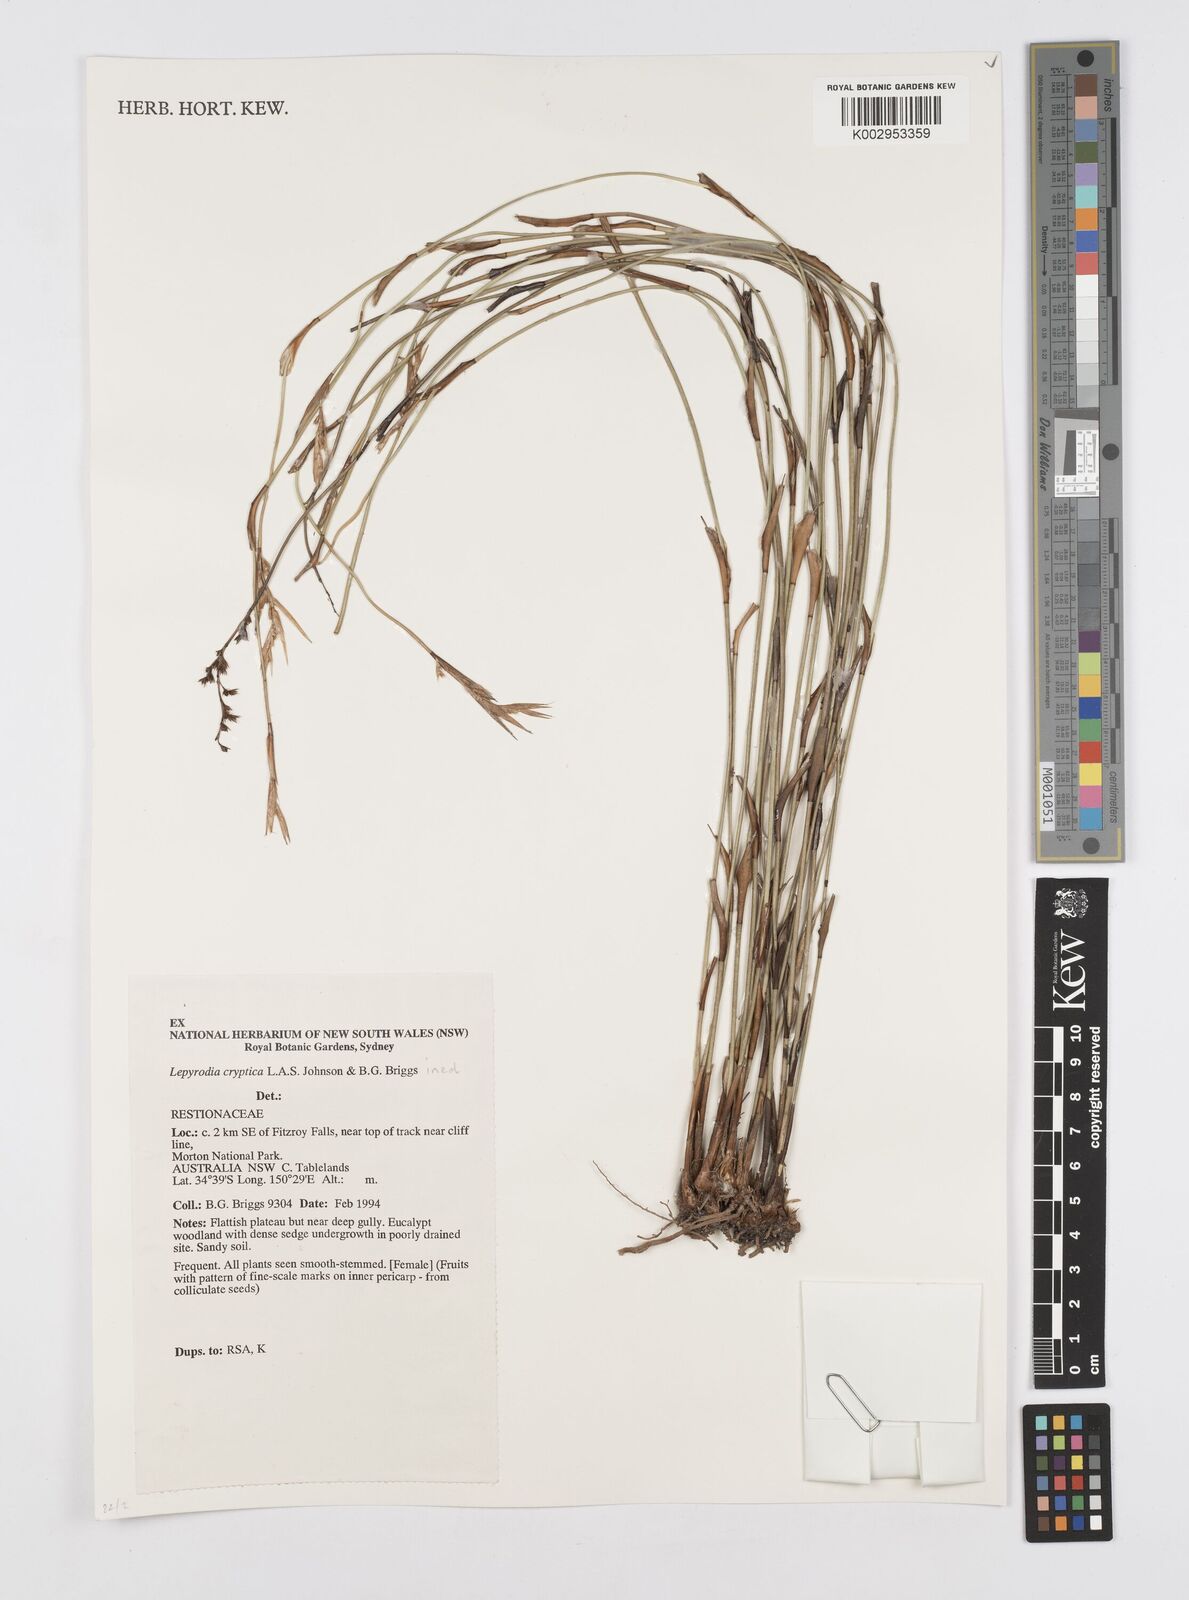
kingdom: Plantae
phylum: Tracheophyta
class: Liliopsida
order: Poales
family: Restionaceae
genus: Lepyrodia
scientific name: Lepyrodia cryptica
